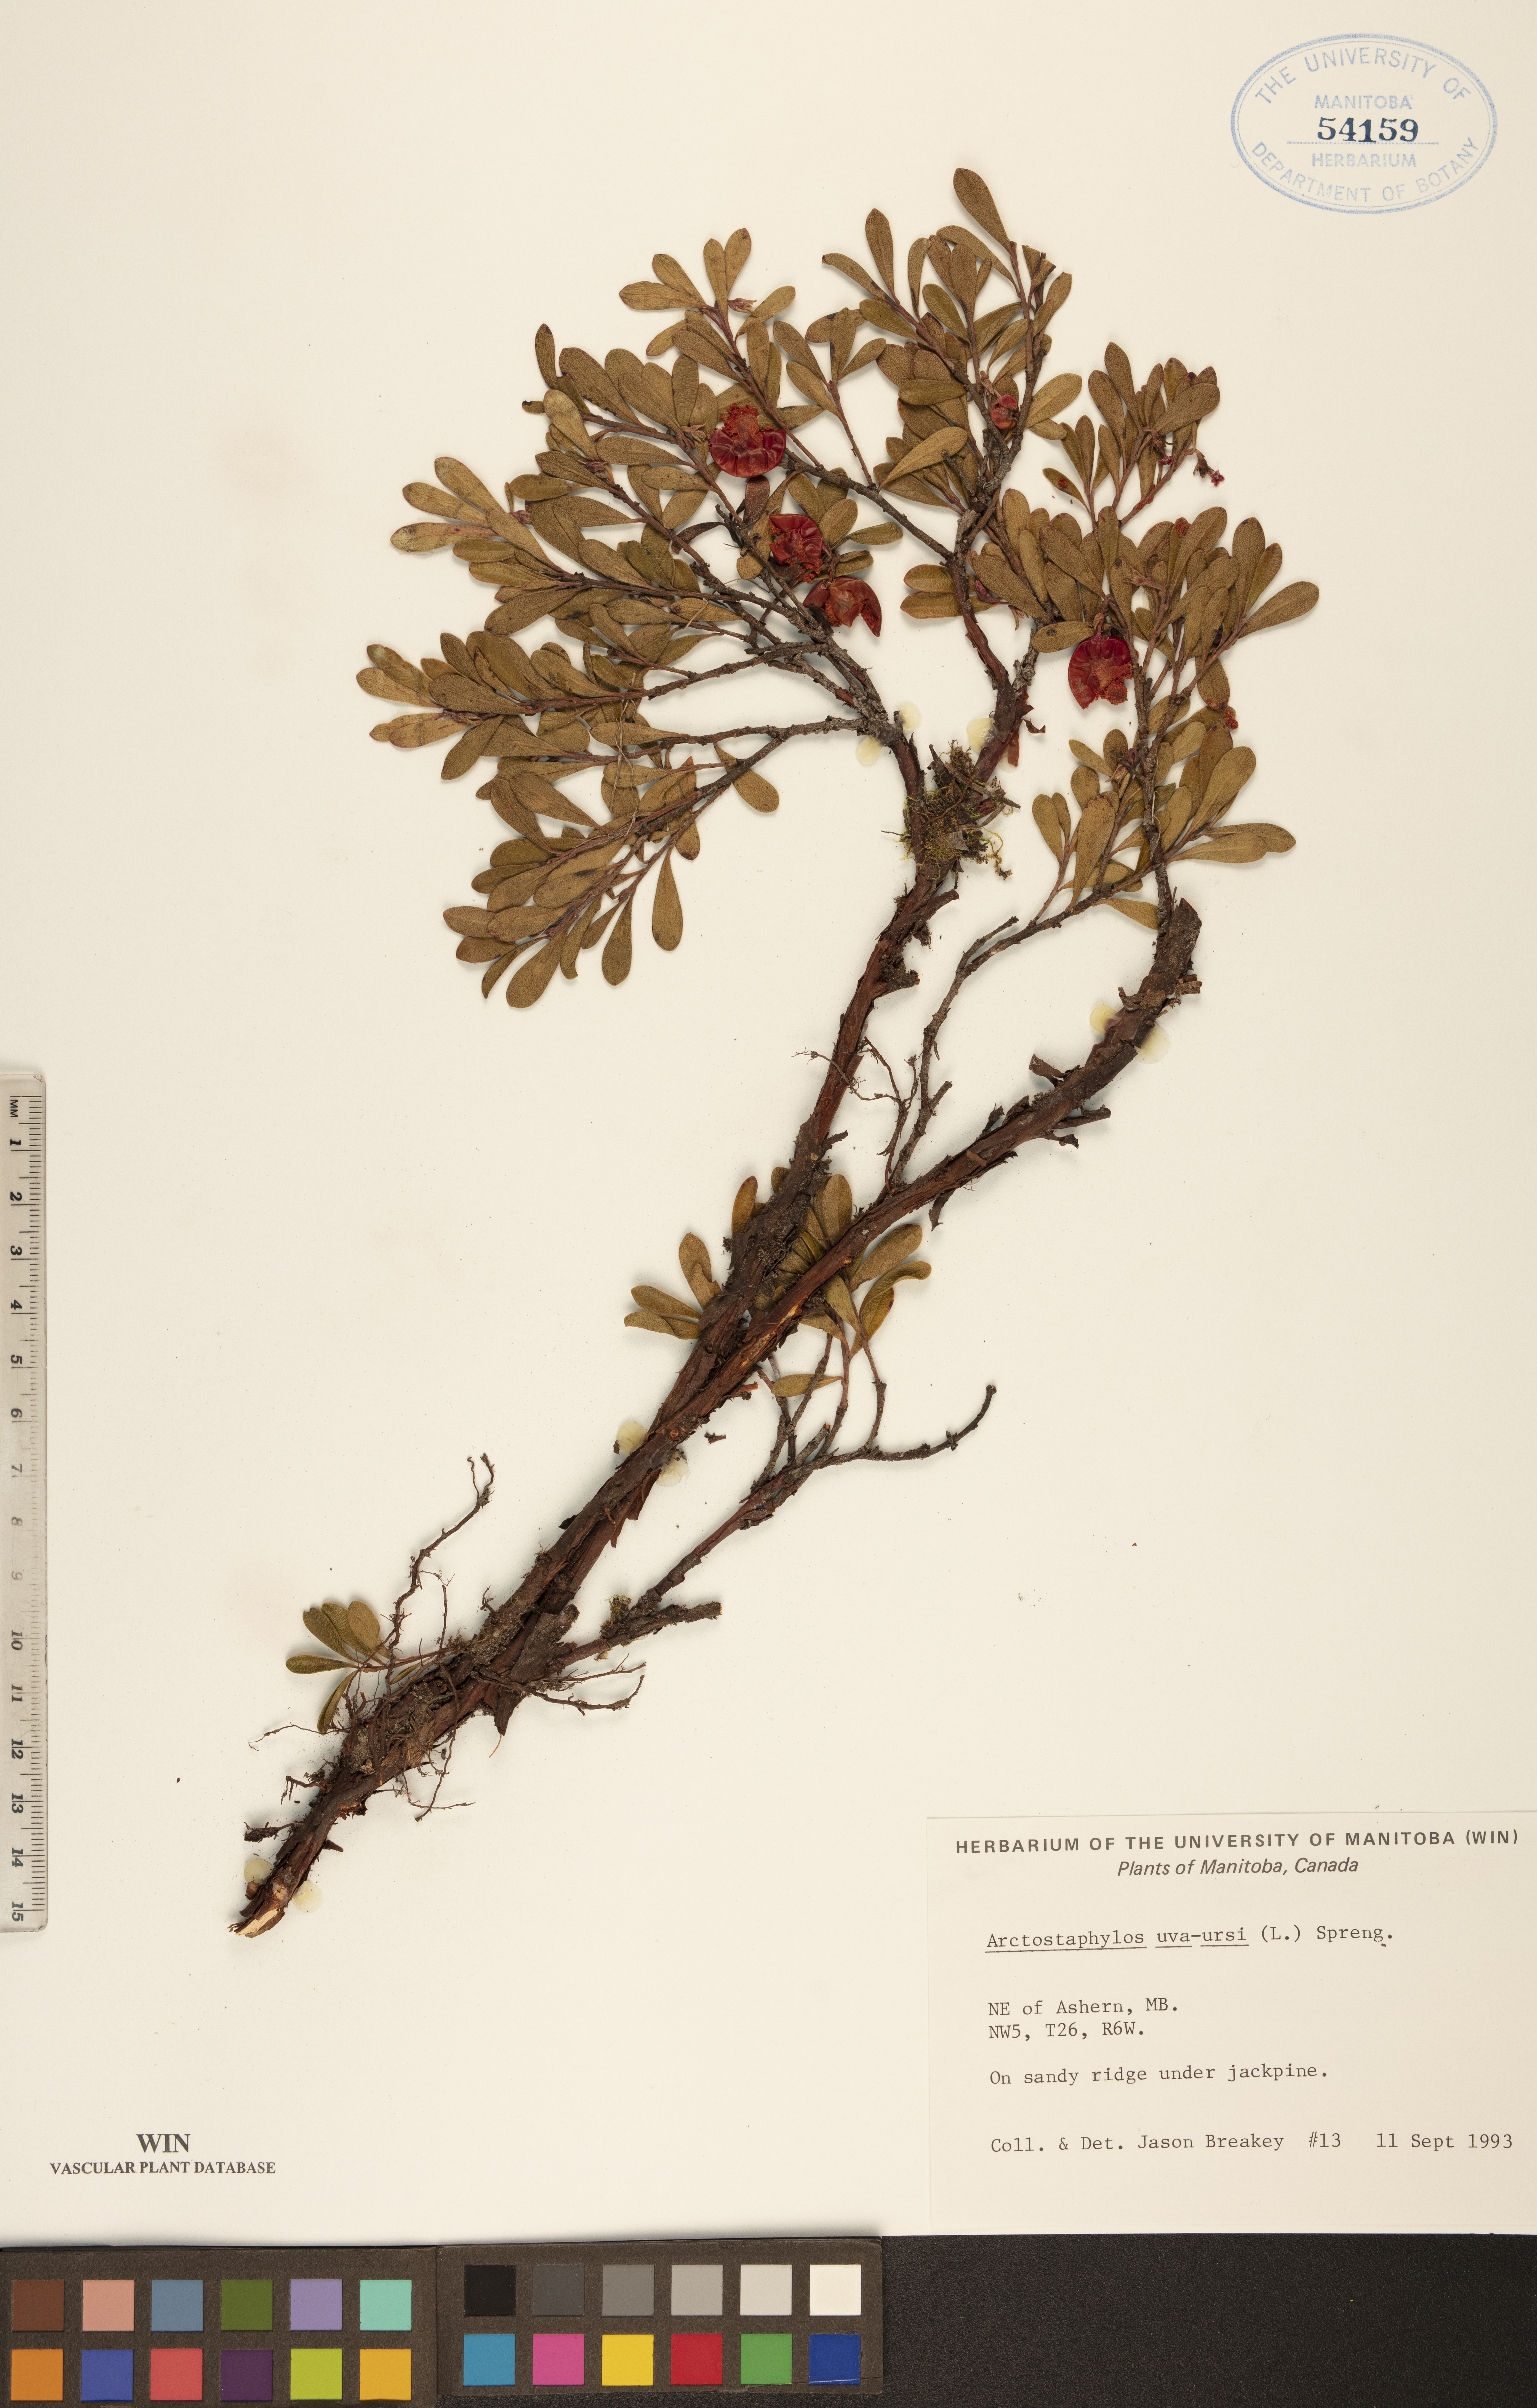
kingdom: Plantae
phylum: Tracheophyta
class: Magnoliopsida
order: Ericales
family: Ericaceae
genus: Arctostaphylos
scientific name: Arctostaphylos uva-ursi
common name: Bearberry
